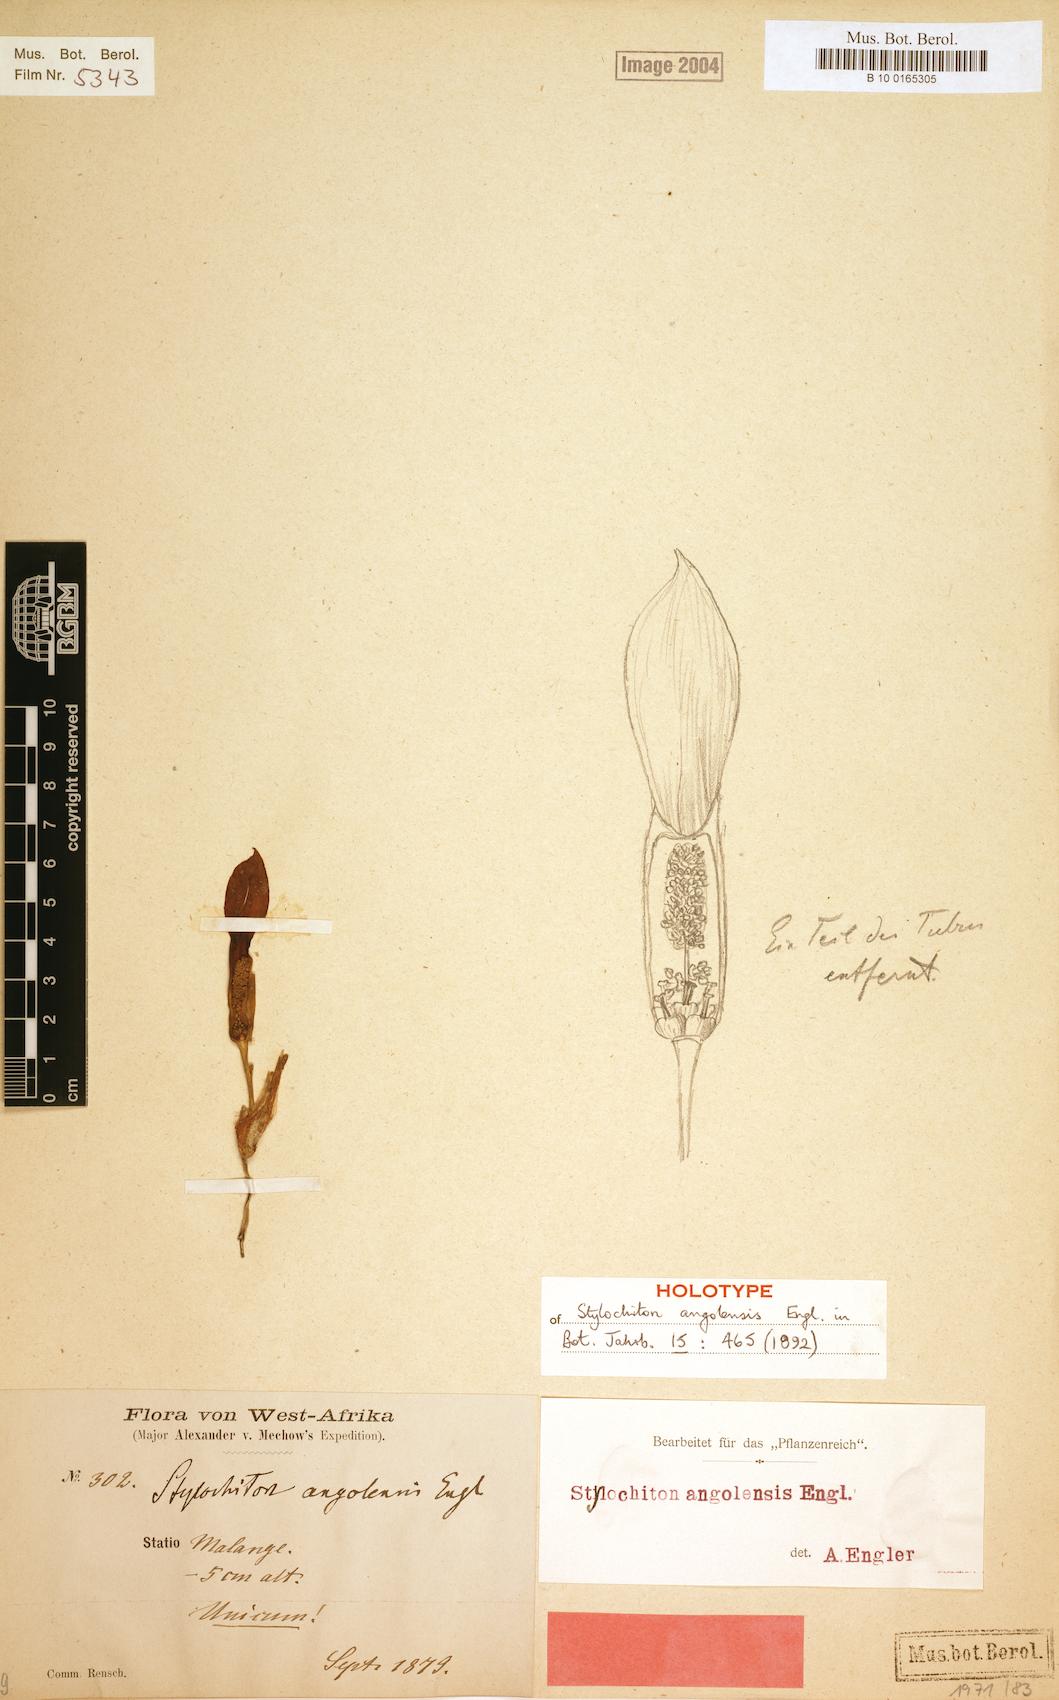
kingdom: Plantae
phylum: Tracheophyta
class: Liliopsida
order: Alismatales
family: Araceae
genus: Stylochiton
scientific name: Stylochiton angolensis
